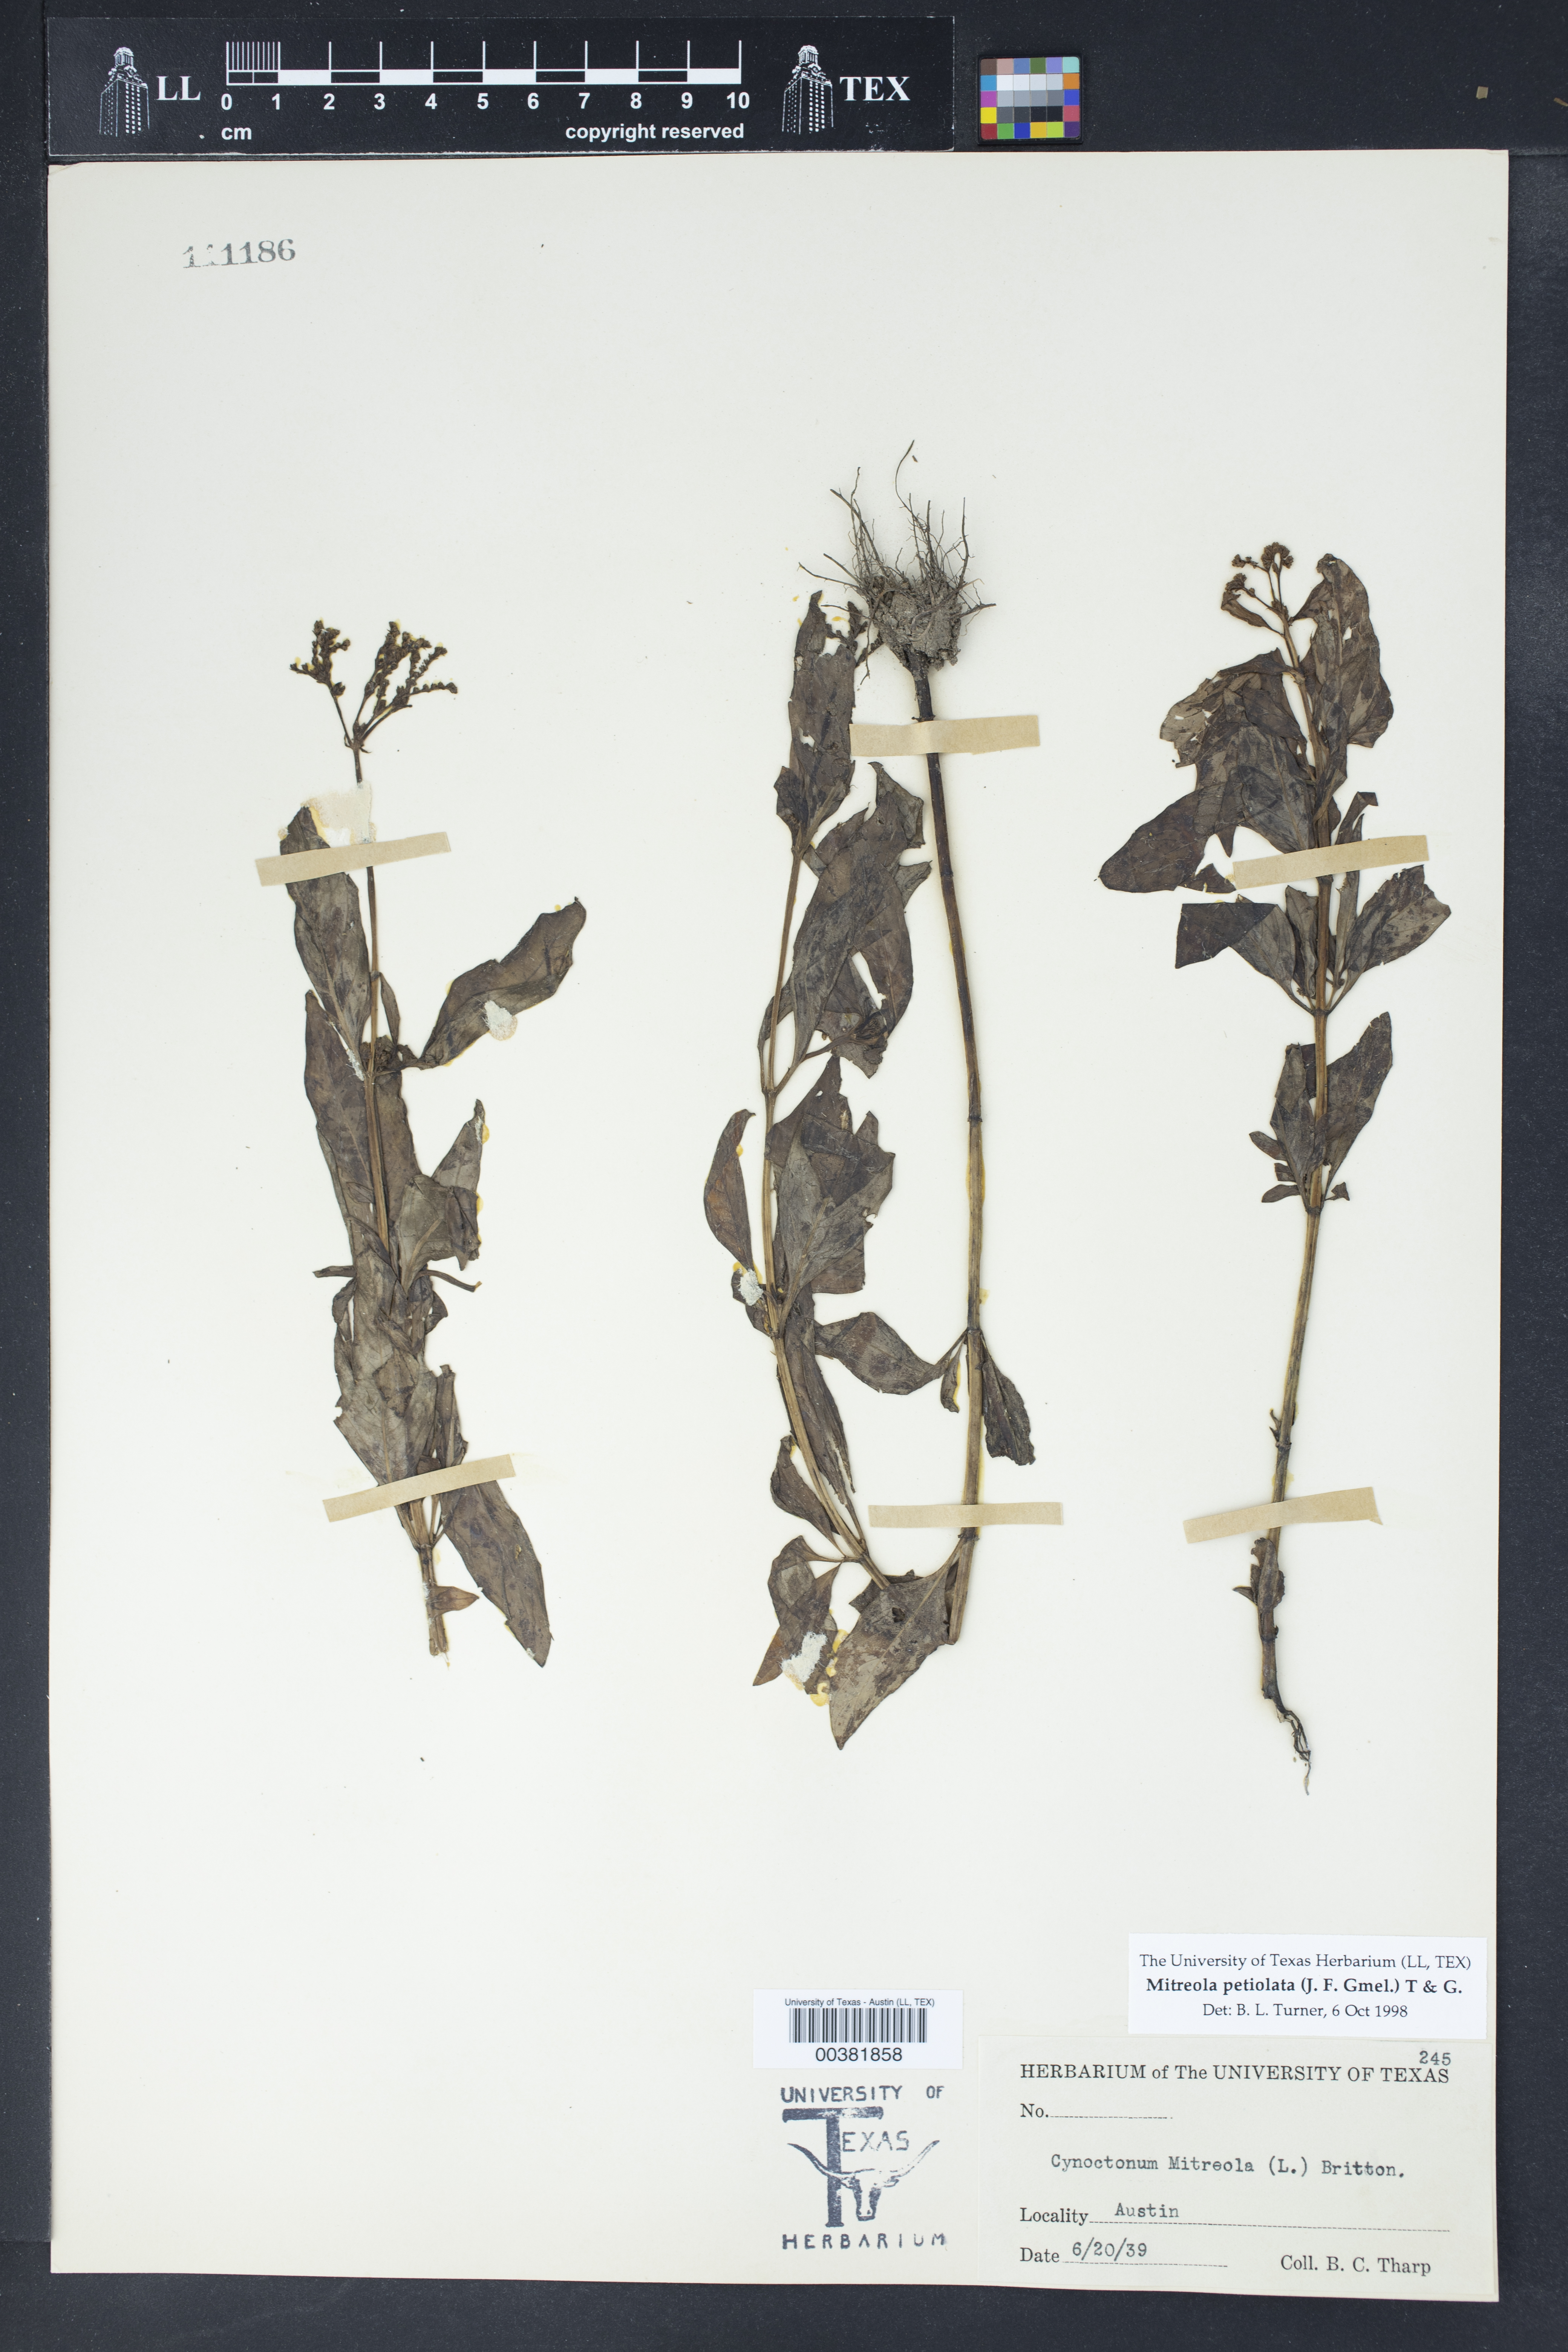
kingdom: Plantae
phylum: Tracheophyta
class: Magnoliopsida
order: Gentianales
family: Loganiaceae
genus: Mitreola
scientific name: Mitreola petiolata
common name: Lax hornpod
